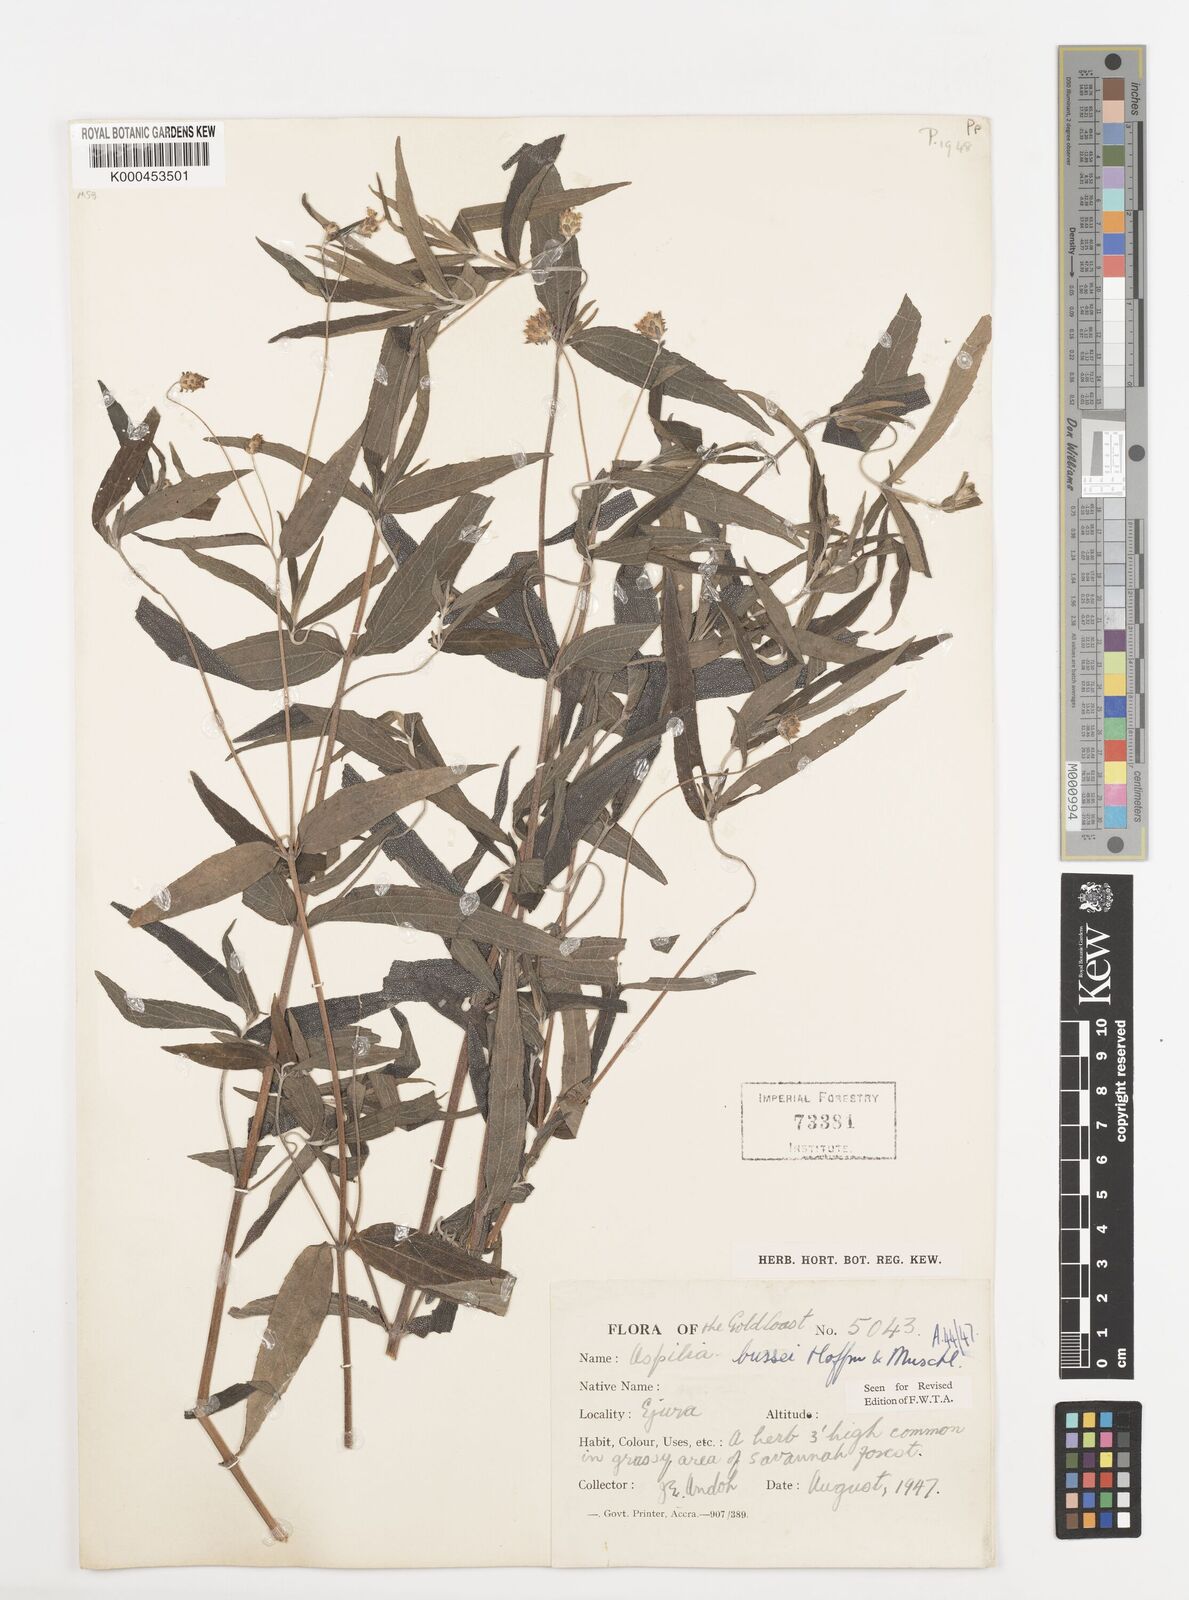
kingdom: Plantae
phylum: Tracheophyta
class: Magnoliopsida
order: Asterales
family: Asteraceae
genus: Aspilia
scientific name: Aspilia bussei
